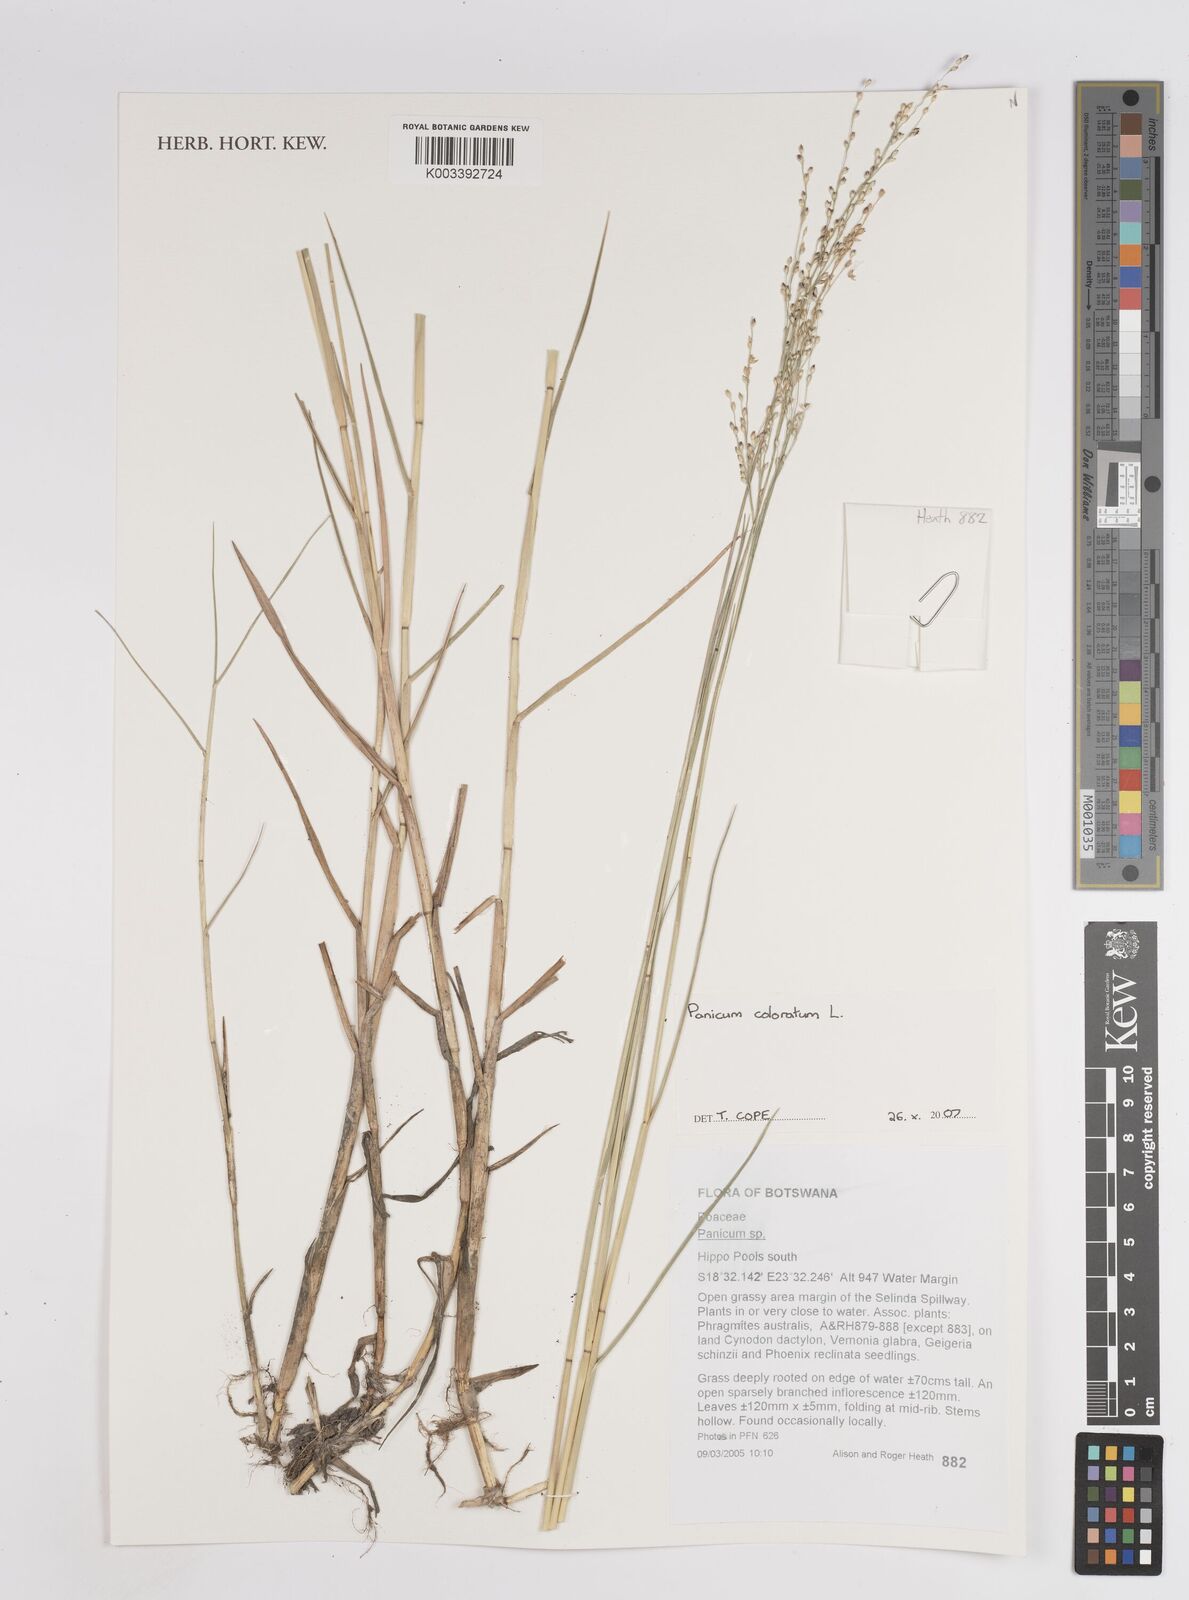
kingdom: Plantae
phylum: Tracheophyta
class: Liliopsida
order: Poales
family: Poaceae
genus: Panicum
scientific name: Panicum coloratum
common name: Kleingrass
